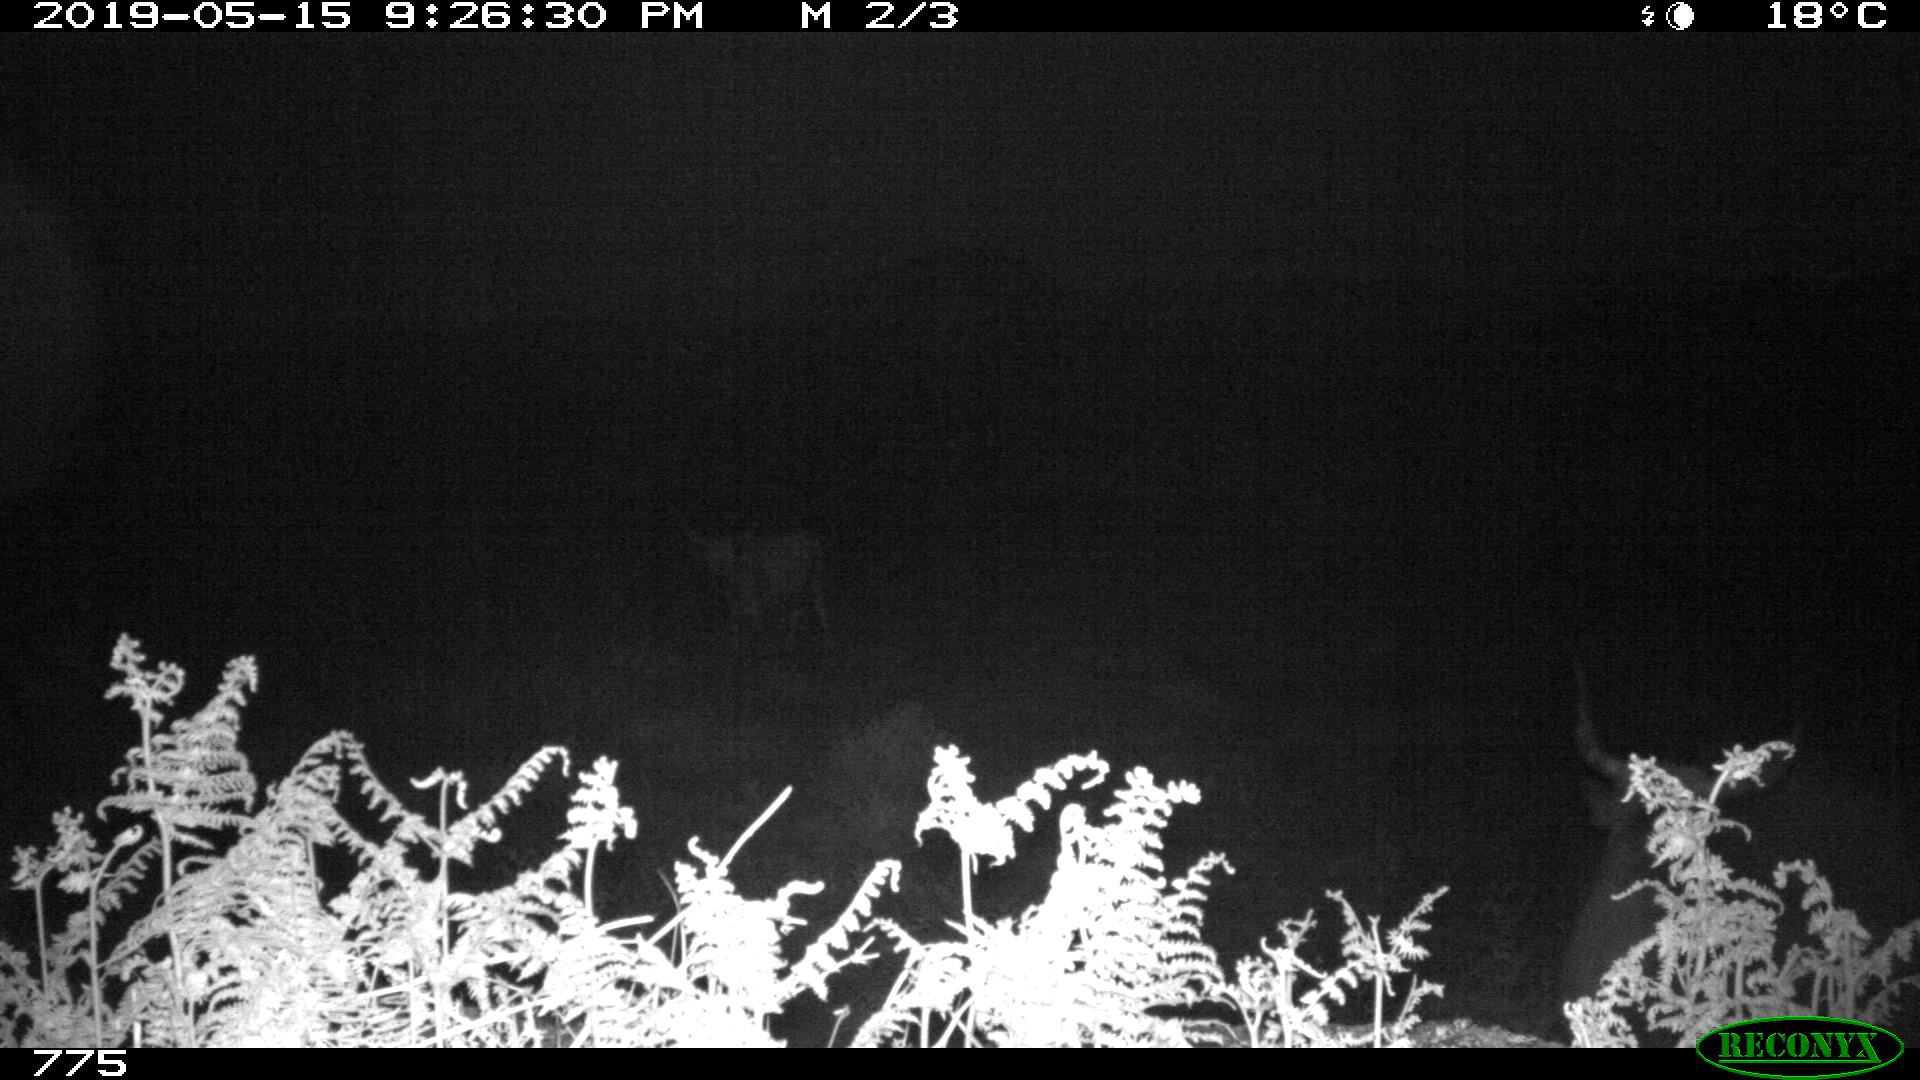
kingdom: Animalia
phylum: Chordata
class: Mammalia
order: Artiodactyla
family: Bovidae
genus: Bos
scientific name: Bos taurus
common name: Domesticated cattle
